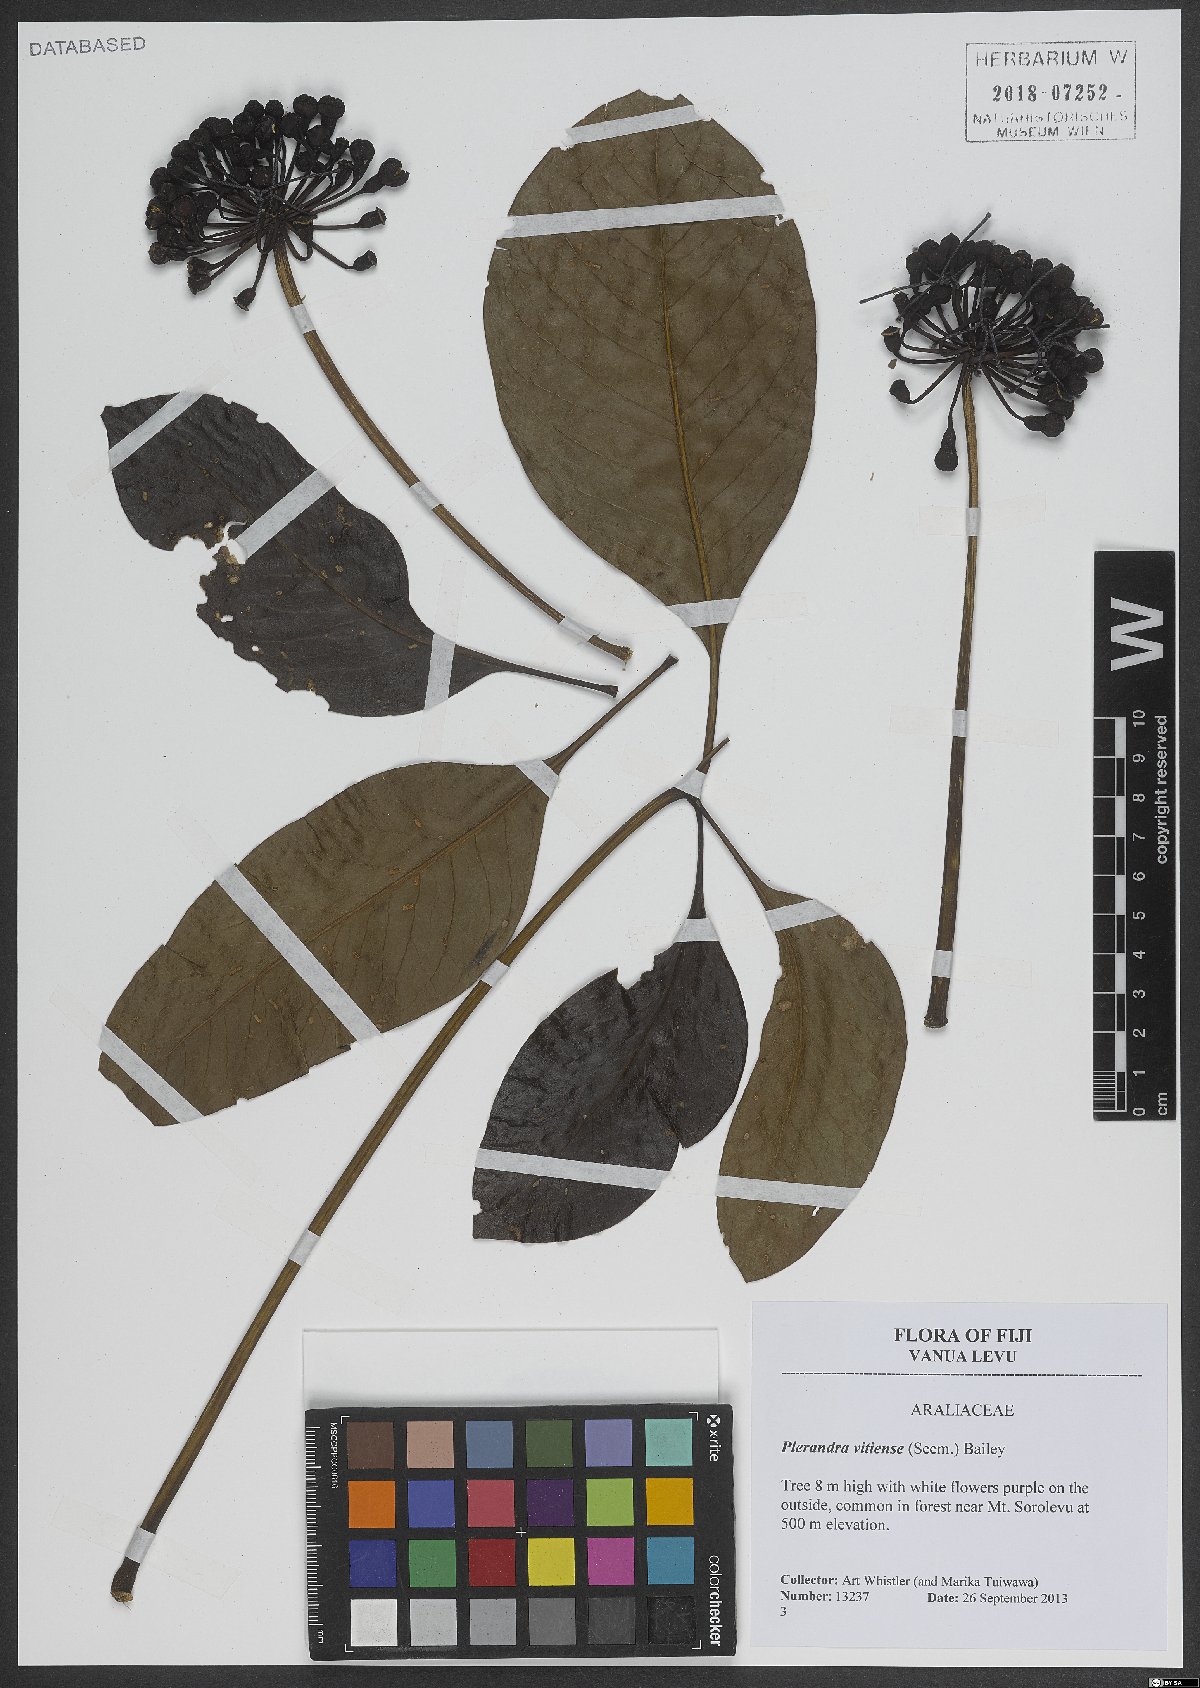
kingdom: Plantae
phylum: Tracheophyta
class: Magnoliopsida
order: Apiales
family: Araliaceae
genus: Plerandra
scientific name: Plerandra vitiensis
